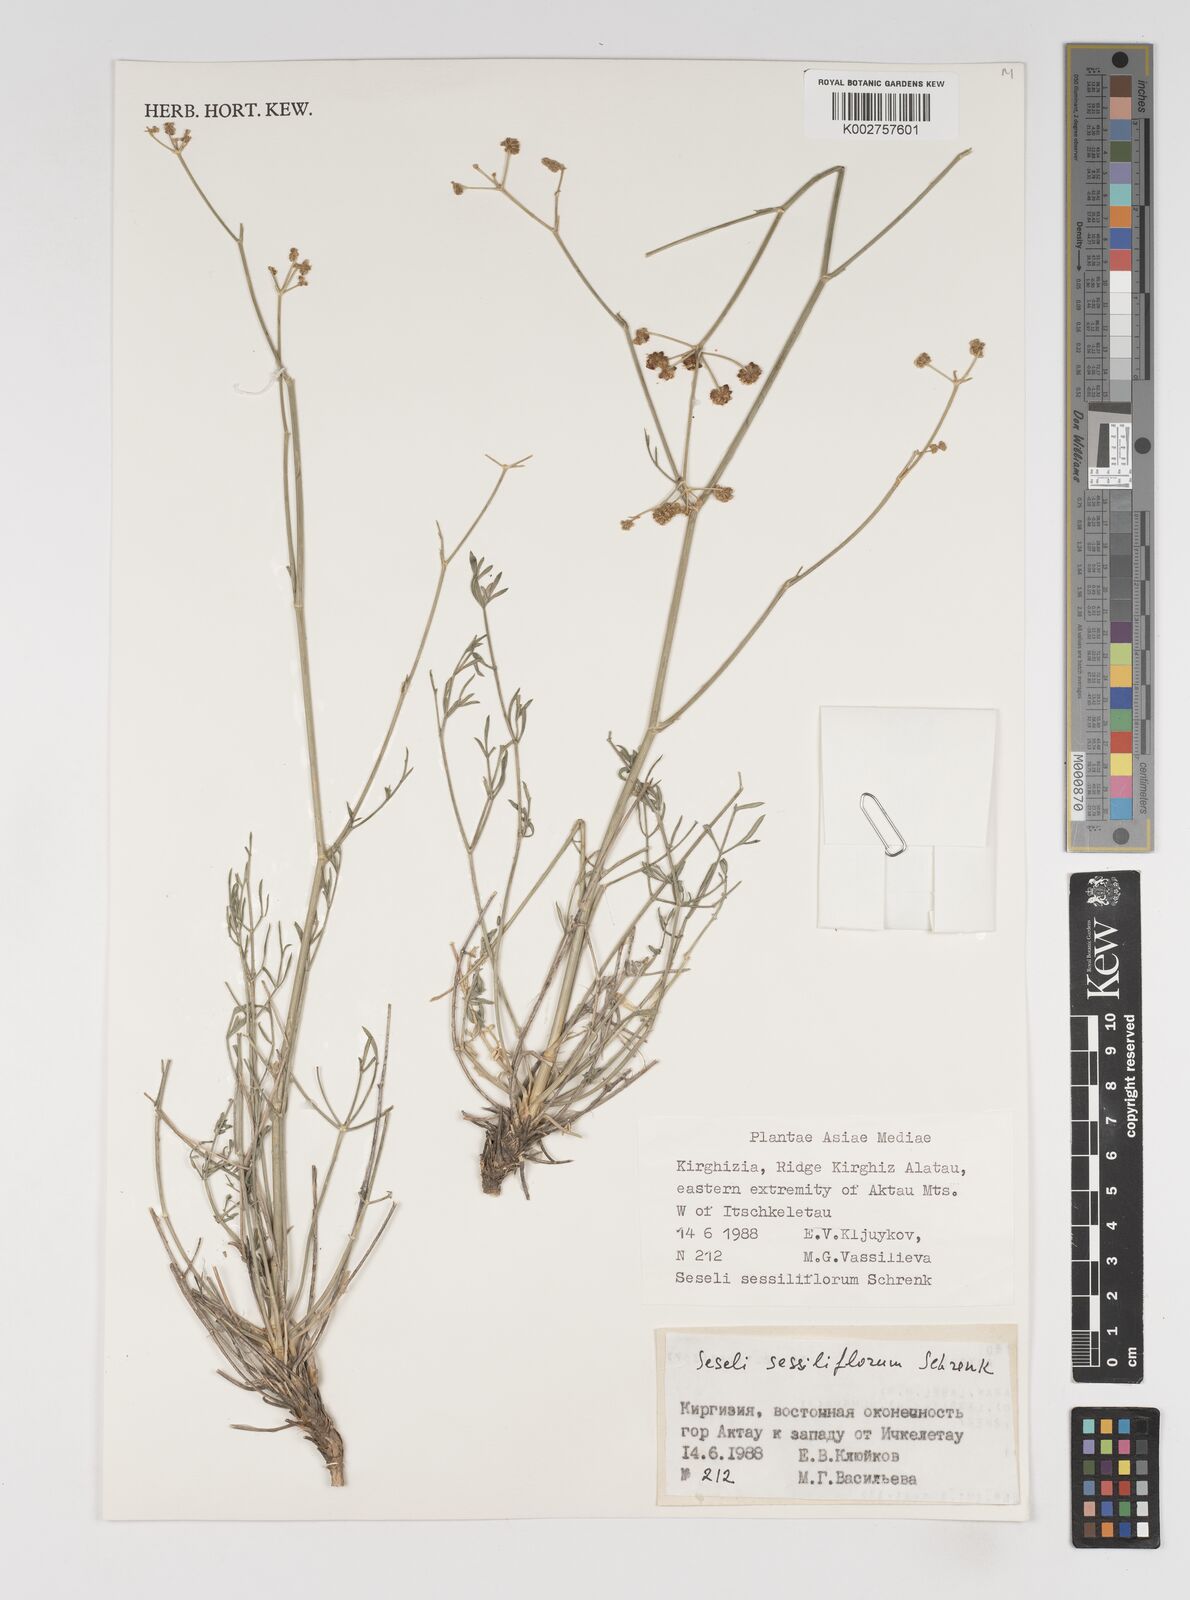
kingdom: Plantae
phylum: Tracheophyta
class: Magnoliopsida
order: Apiales
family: Apiaceae
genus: Seseli
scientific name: Seseli sessiliflorum
